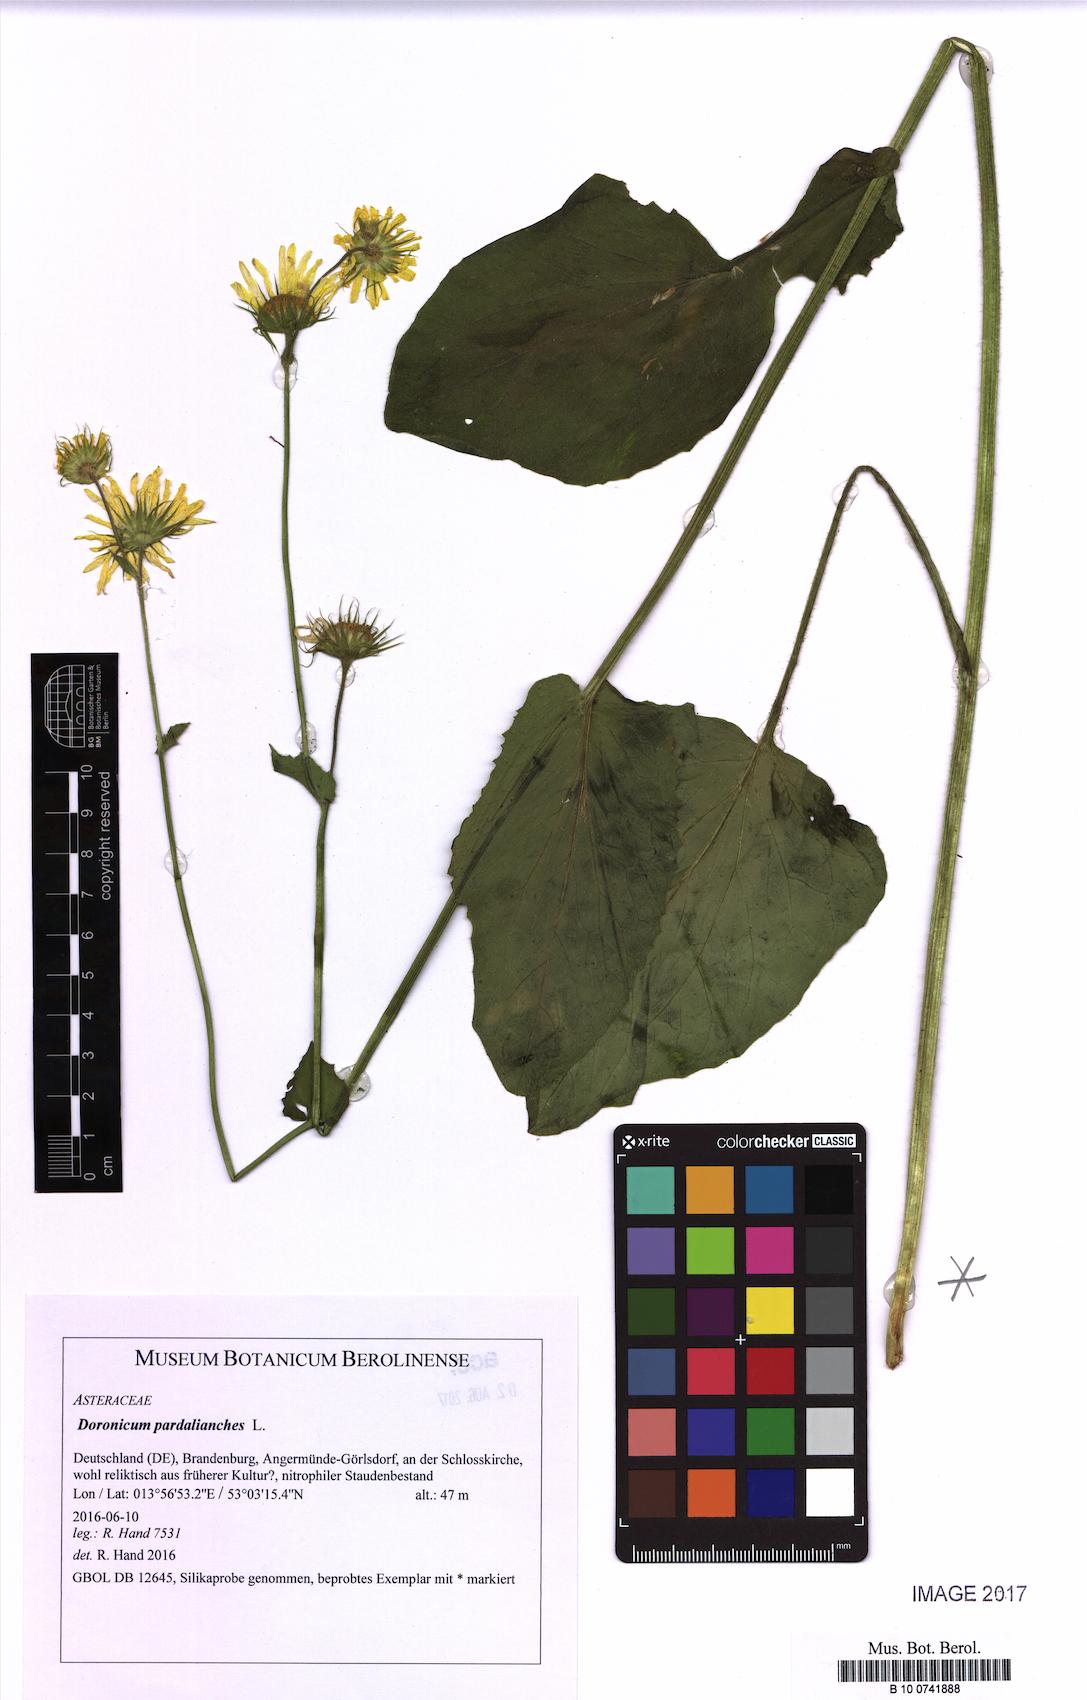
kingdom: Plantae
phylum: Tracheophyta
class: Magnoliopsida
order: Asterales
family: Asteraceae
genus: Doronicum
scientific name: Doronicum pardalianches
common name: Leopard's-bane
